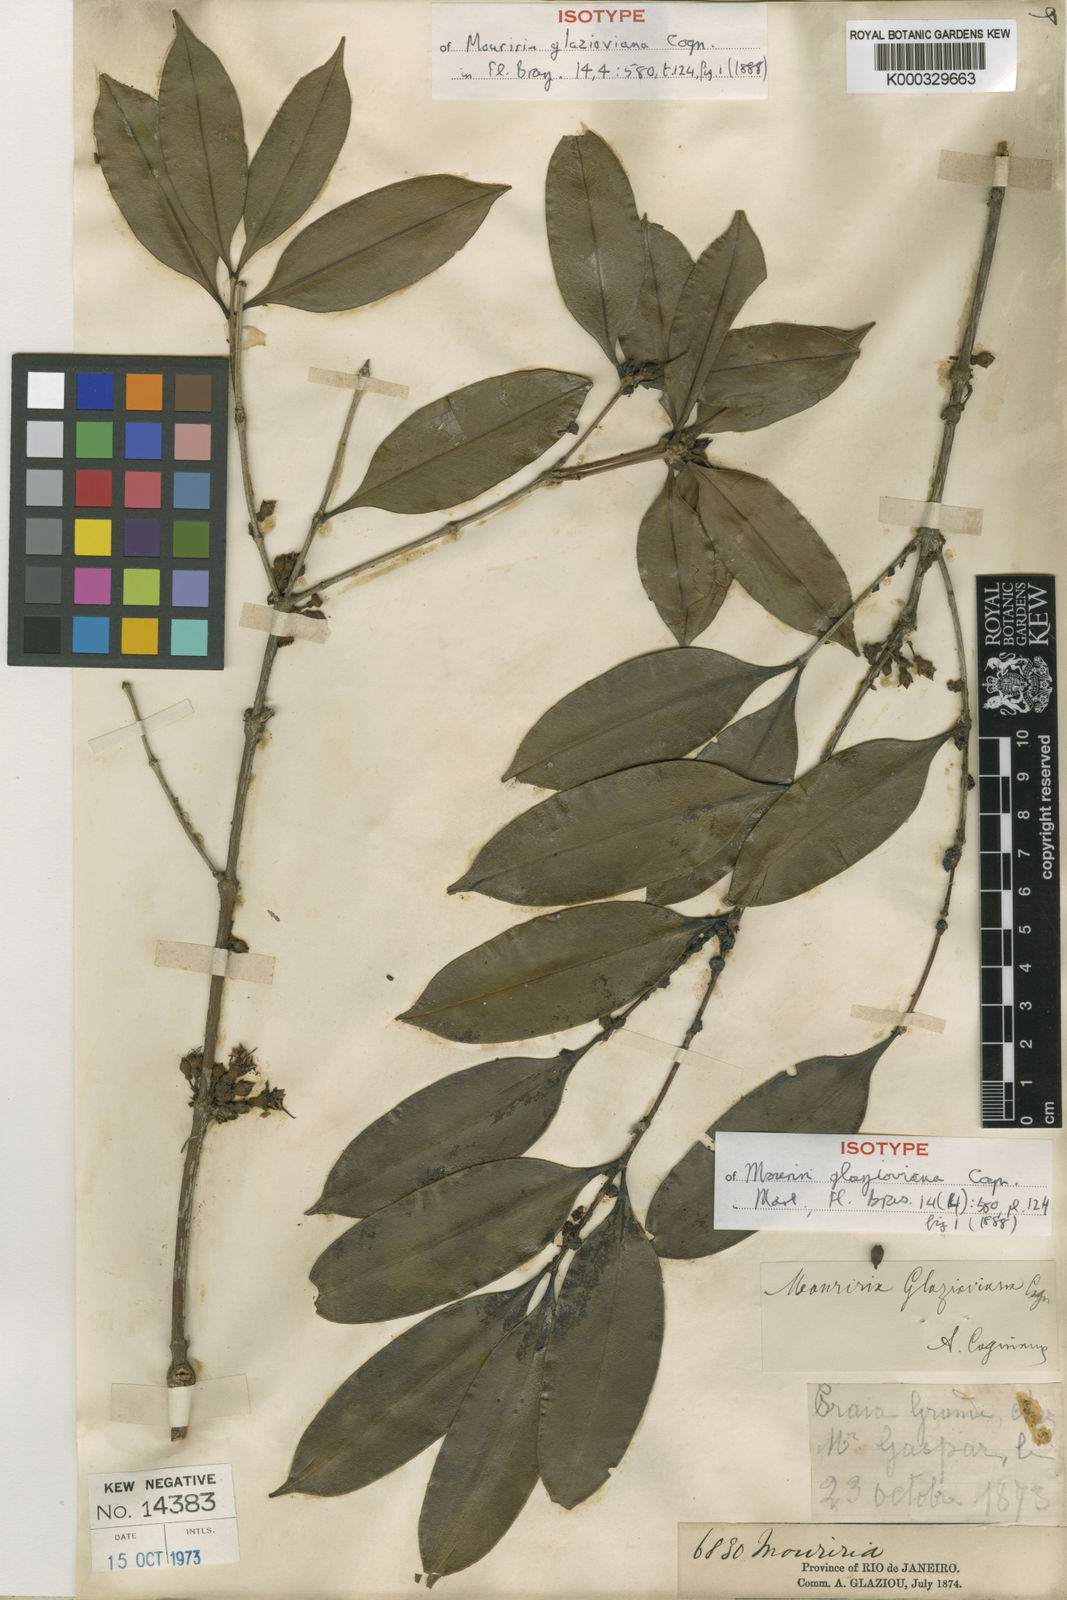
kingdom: Plantae
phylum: Tracheophyta
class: Magnoliopsida
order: Myrtales
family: Melastomataceae
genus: Mouriri
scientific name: Mouriri glazioviana
